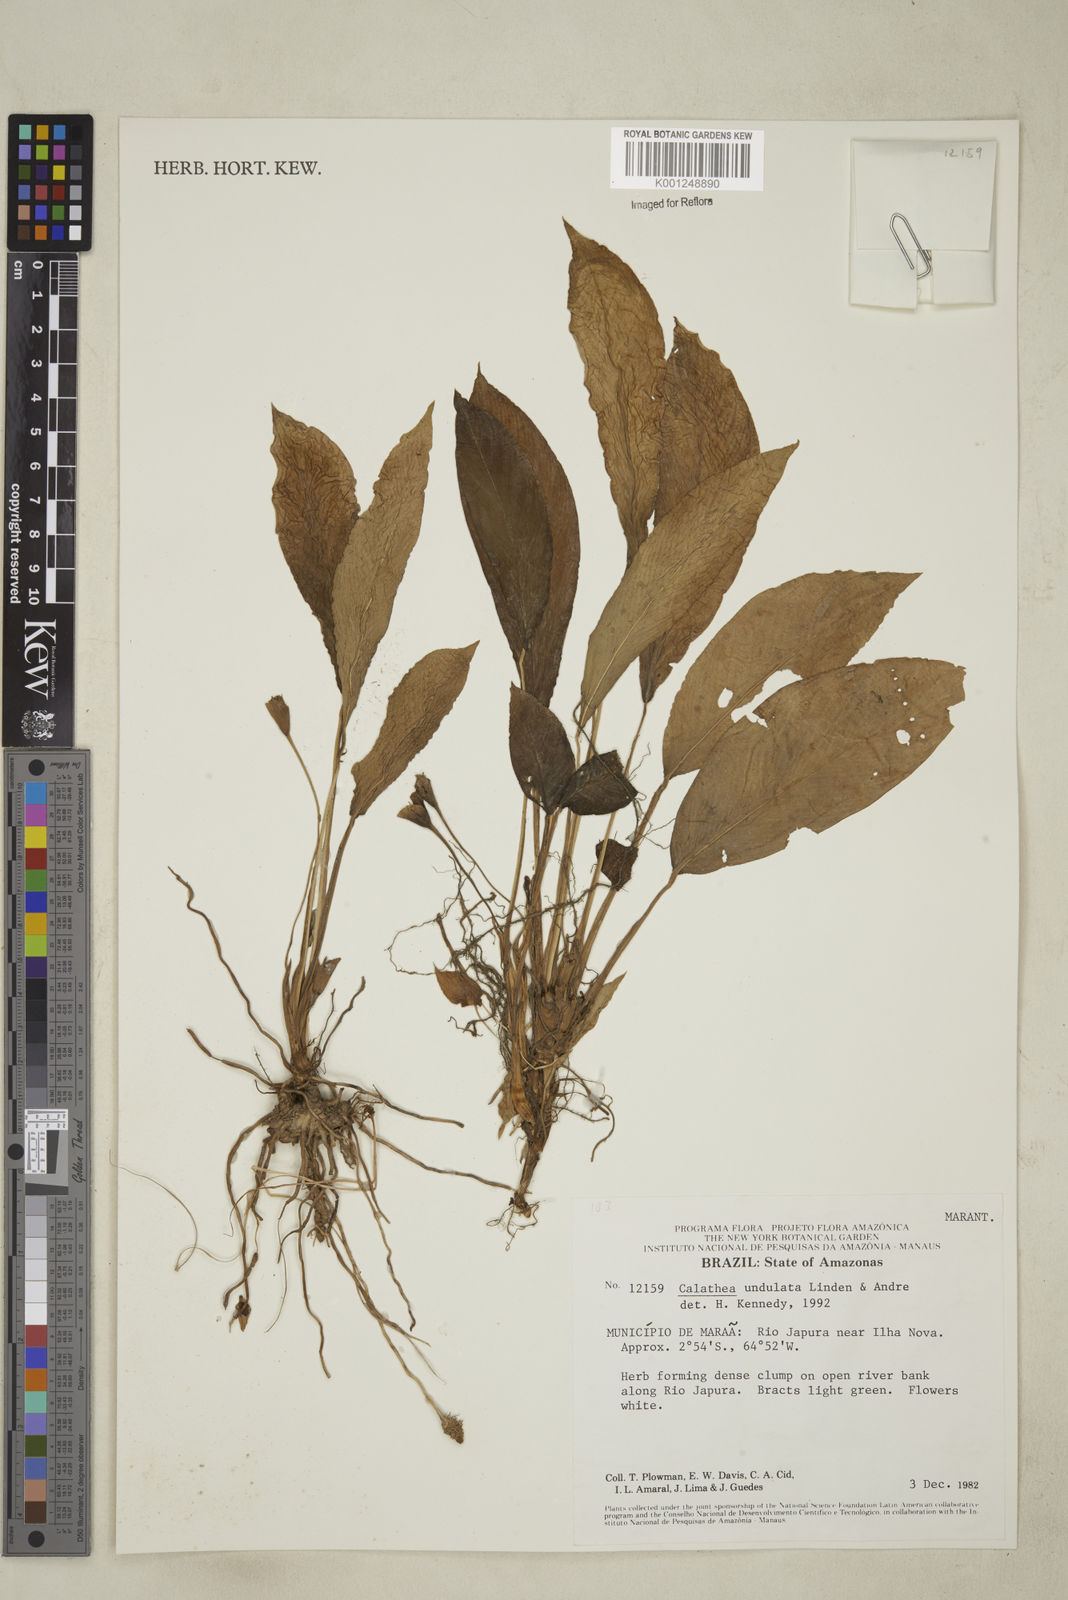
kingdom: Plantae
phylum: Tracheophyta
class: Liliopsida
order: Zingiberales
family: Marantaceae
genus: Goeppertia
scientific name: Goeppertia undulata
